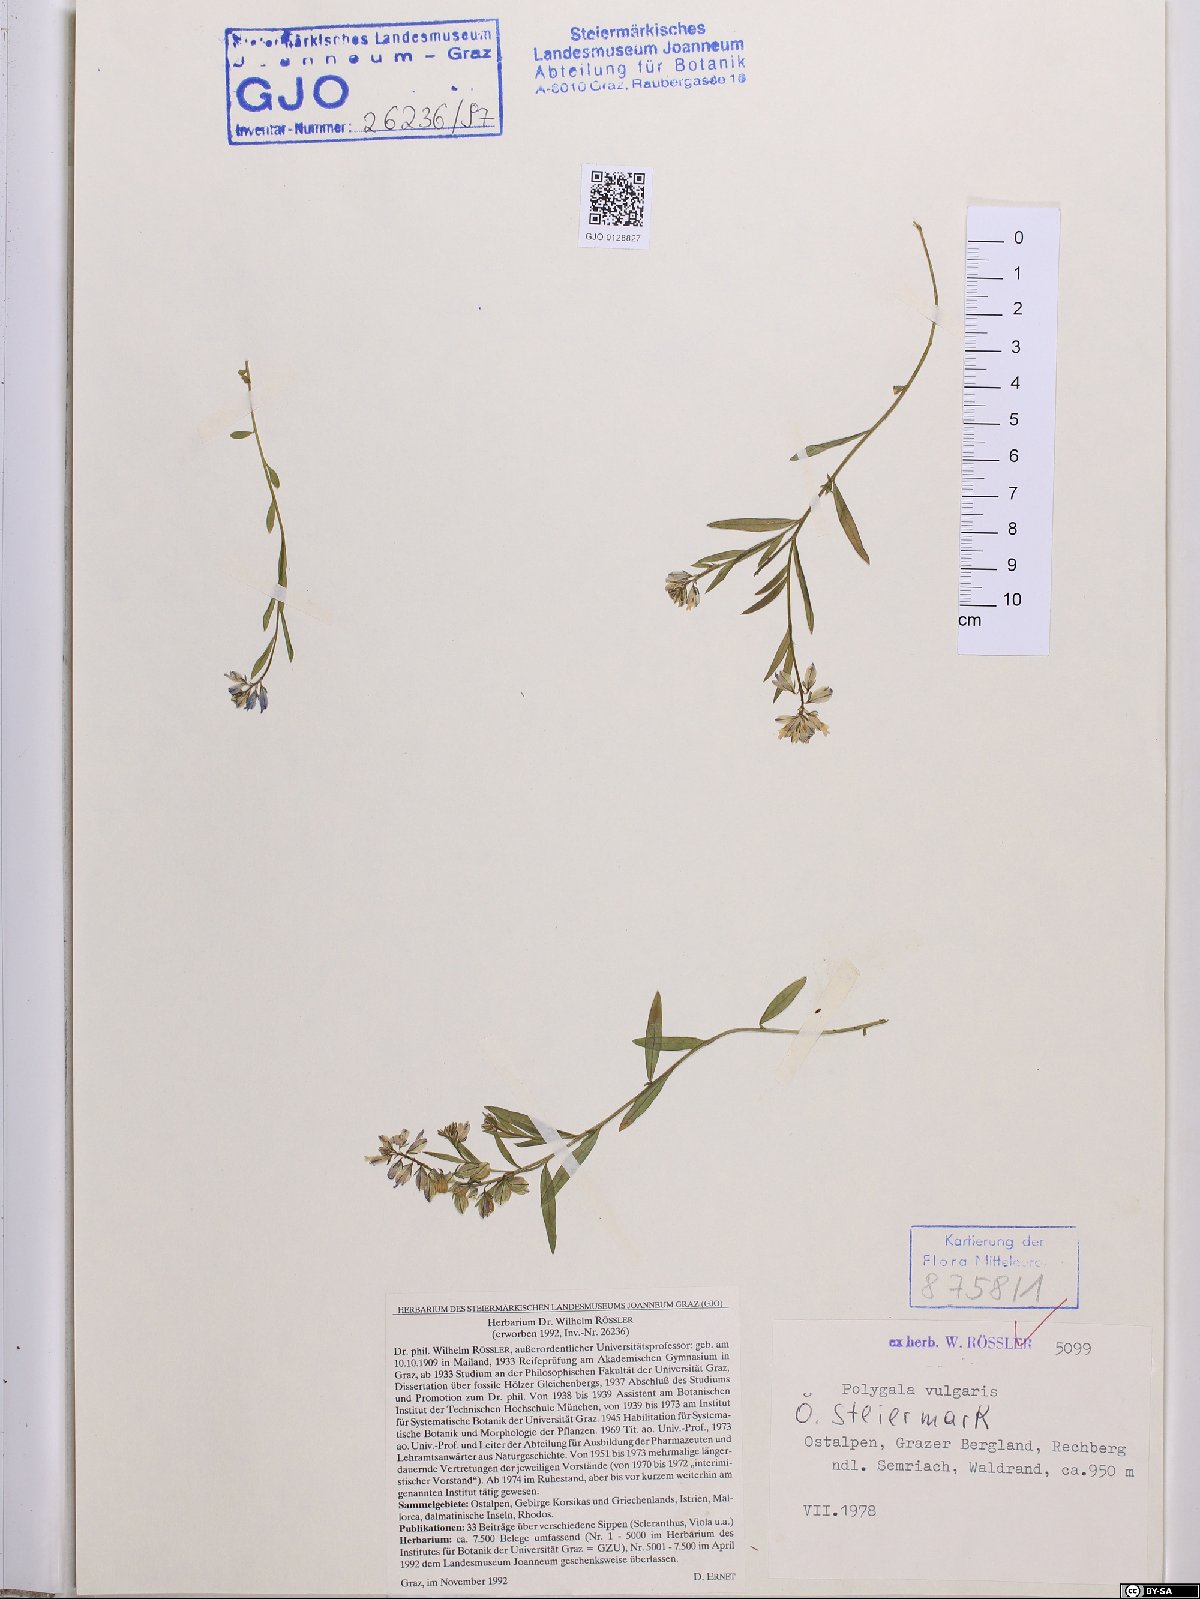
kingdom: Plantae
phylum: Tracheophyta
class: Magnoliopsida
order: Fabales
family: Polygalaceae
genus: Polygala
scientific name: Polygala vulgaris
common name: Common milkwort
